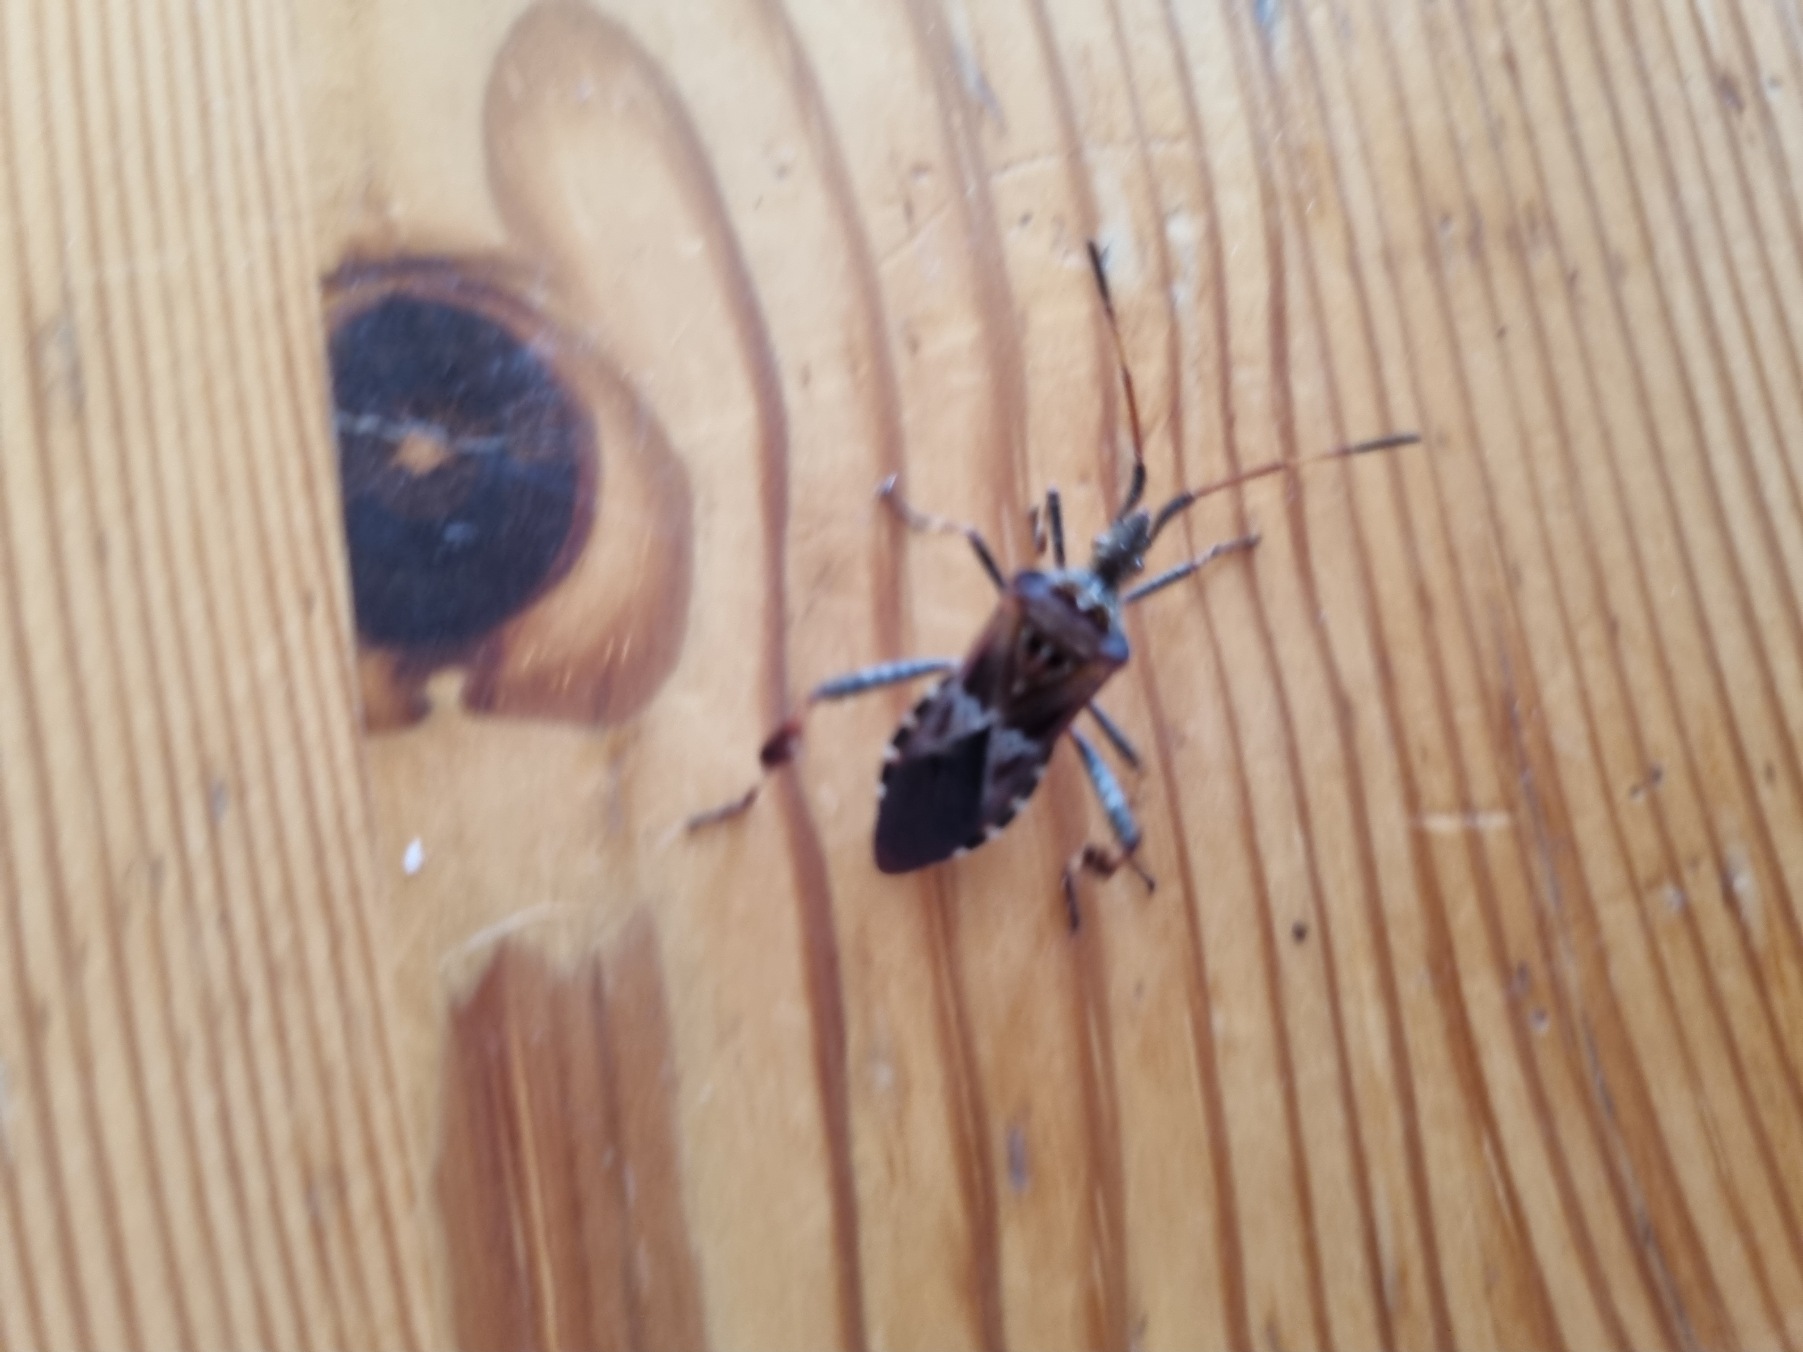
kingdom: Animalia
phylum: Arthropoda
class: Insecta
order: Hemiptera
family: Coreidae
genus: Leptoglossus
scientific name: Leptoglossus occidentalis
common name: Amerikansk fyrretæge
